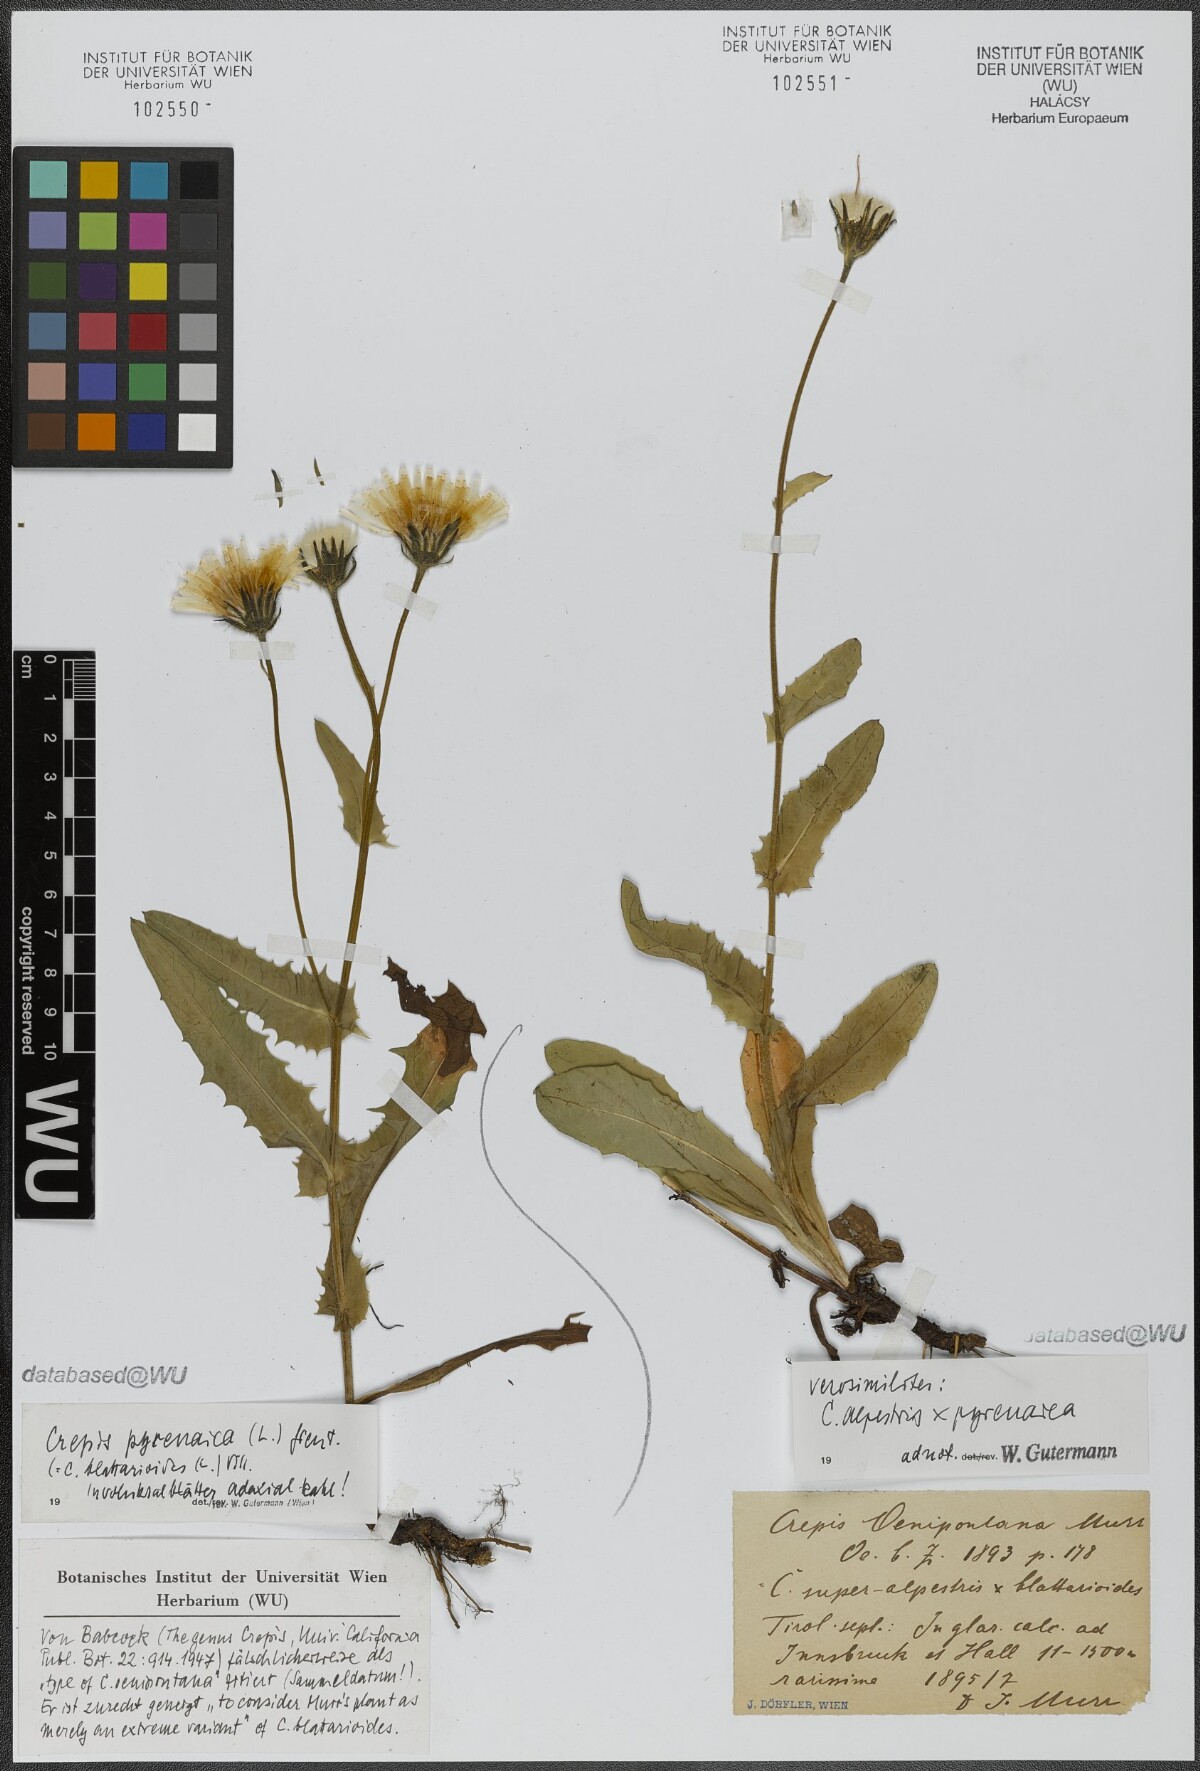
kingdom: Plantae
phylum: Tracheophyta
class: Magnoliopsida
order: Asterales
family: Asteraceae
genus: Crepis
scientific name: Crepis pyrenaica
